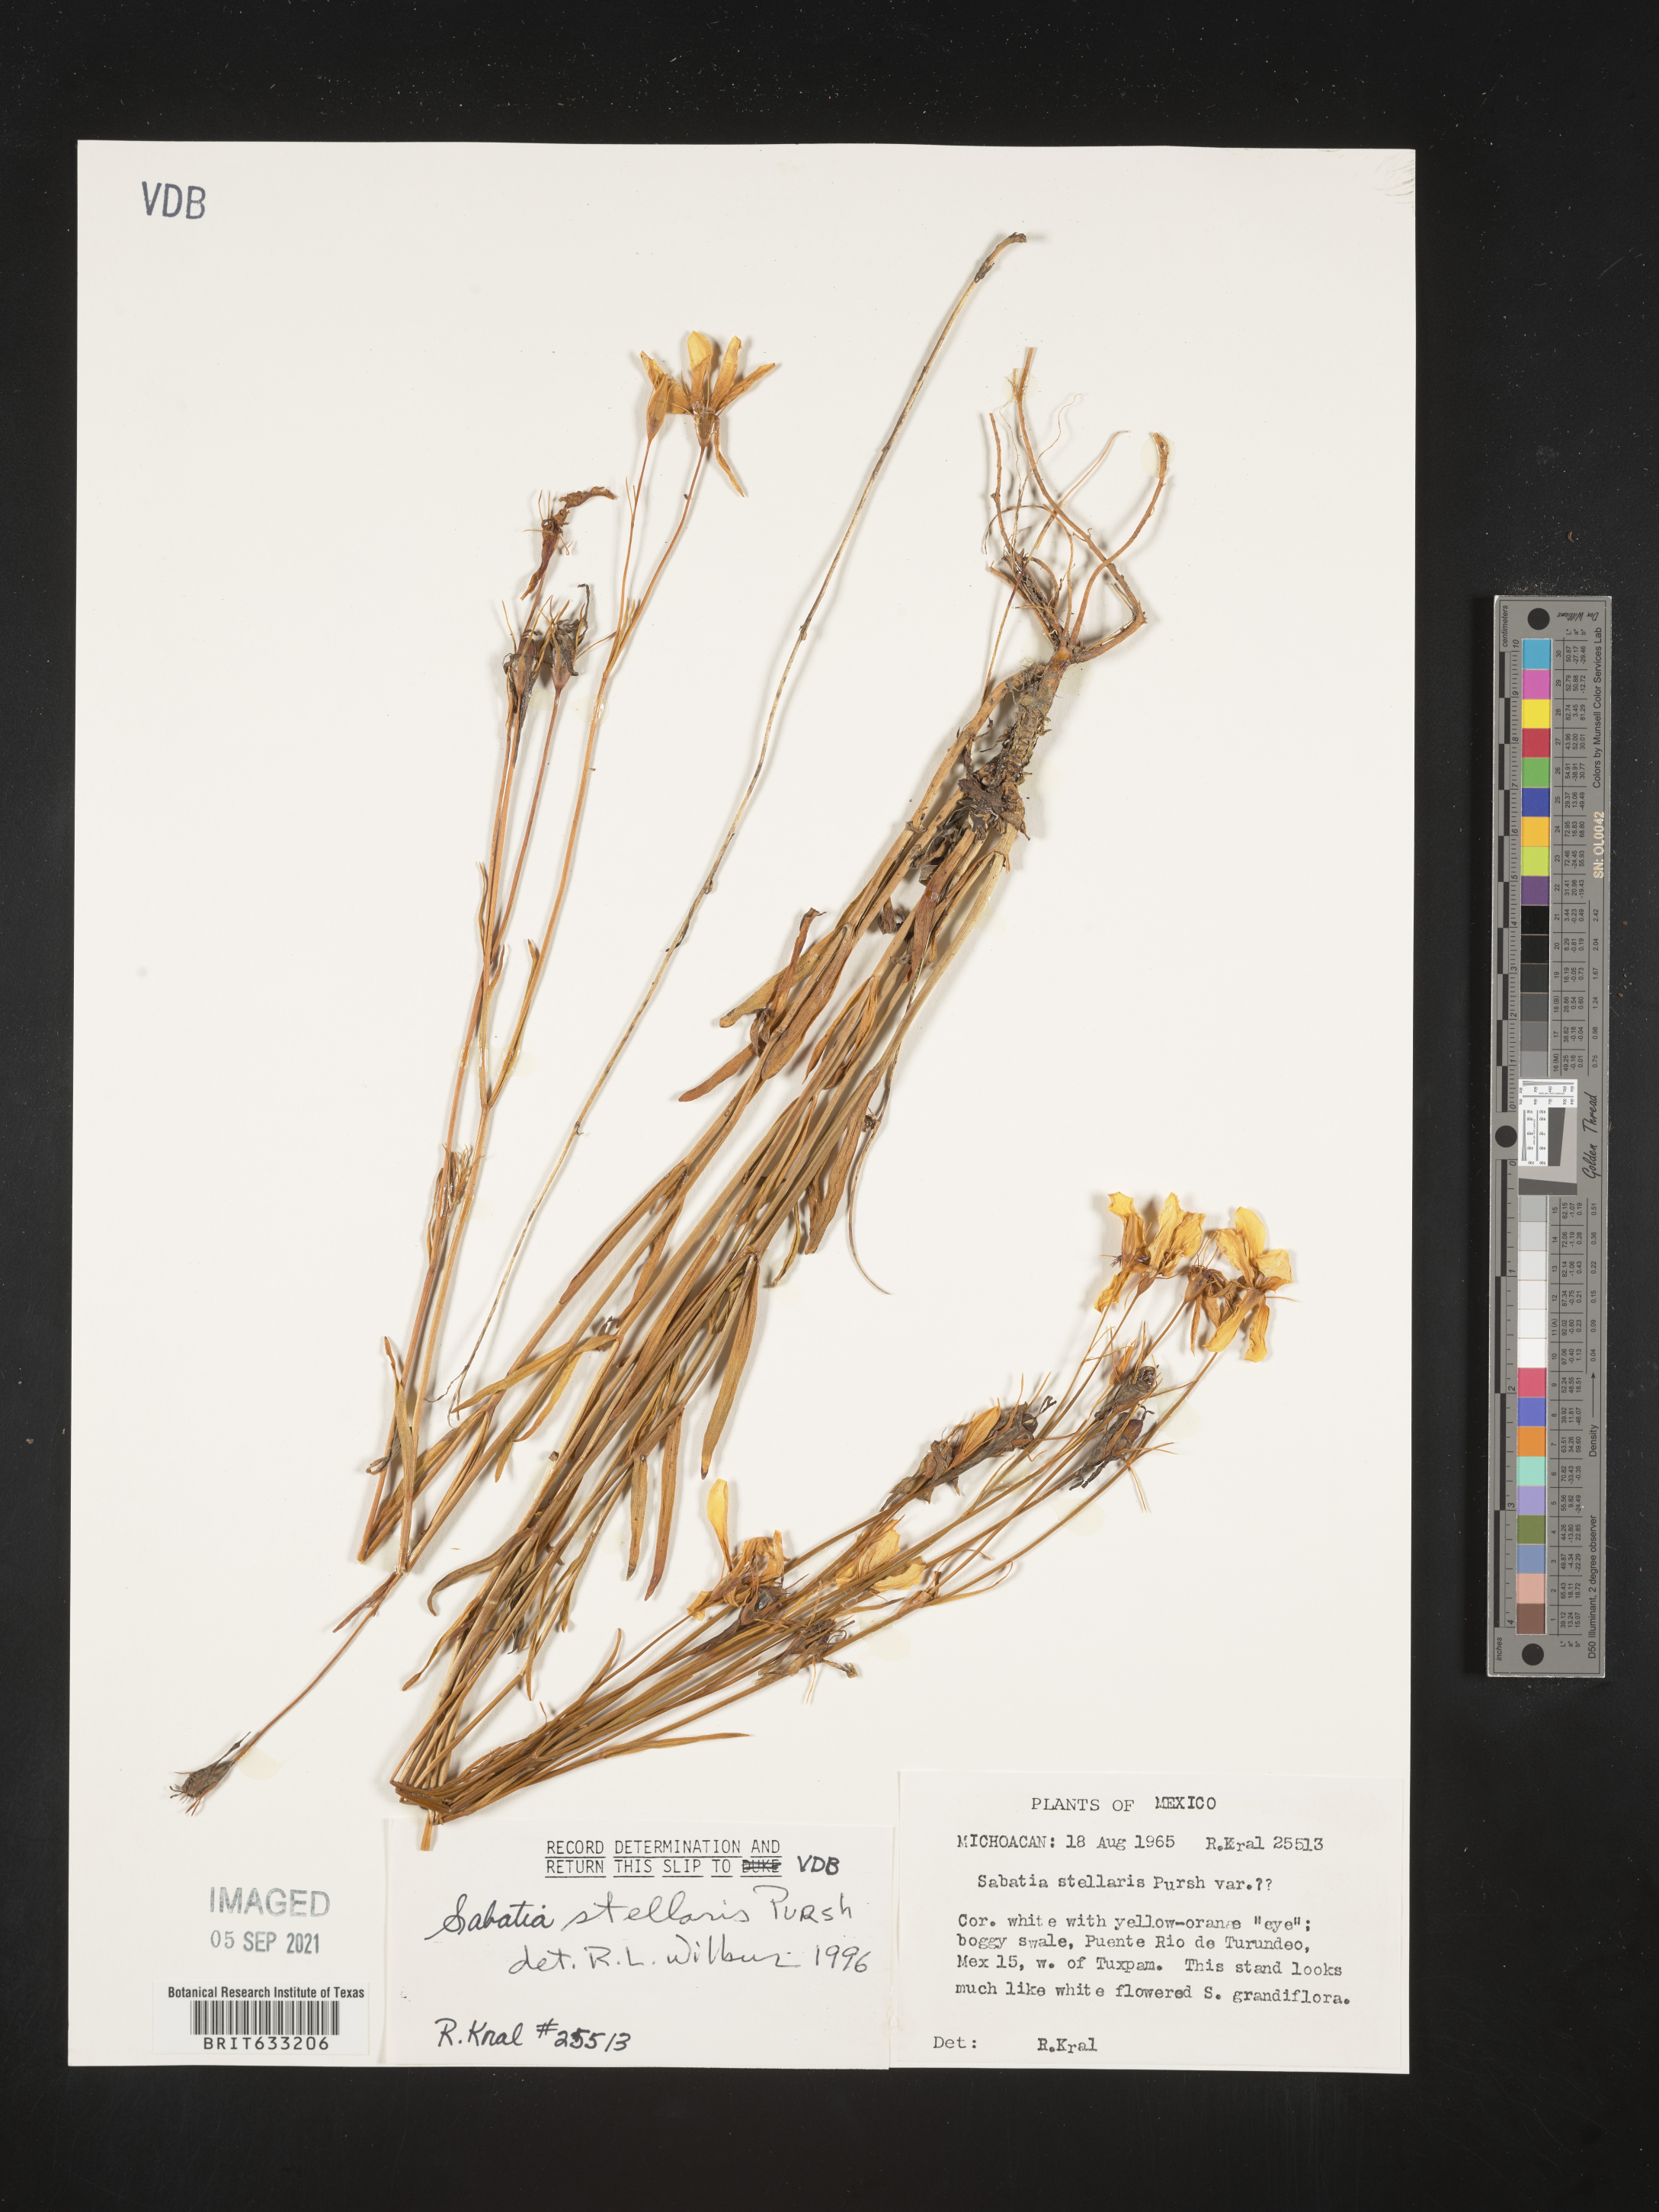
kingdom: Plantae
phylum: Tracheophyta
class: Magnoliopsida
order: Gentianales
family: Gentianaceae
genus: Sabatia
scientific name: Sabatia
